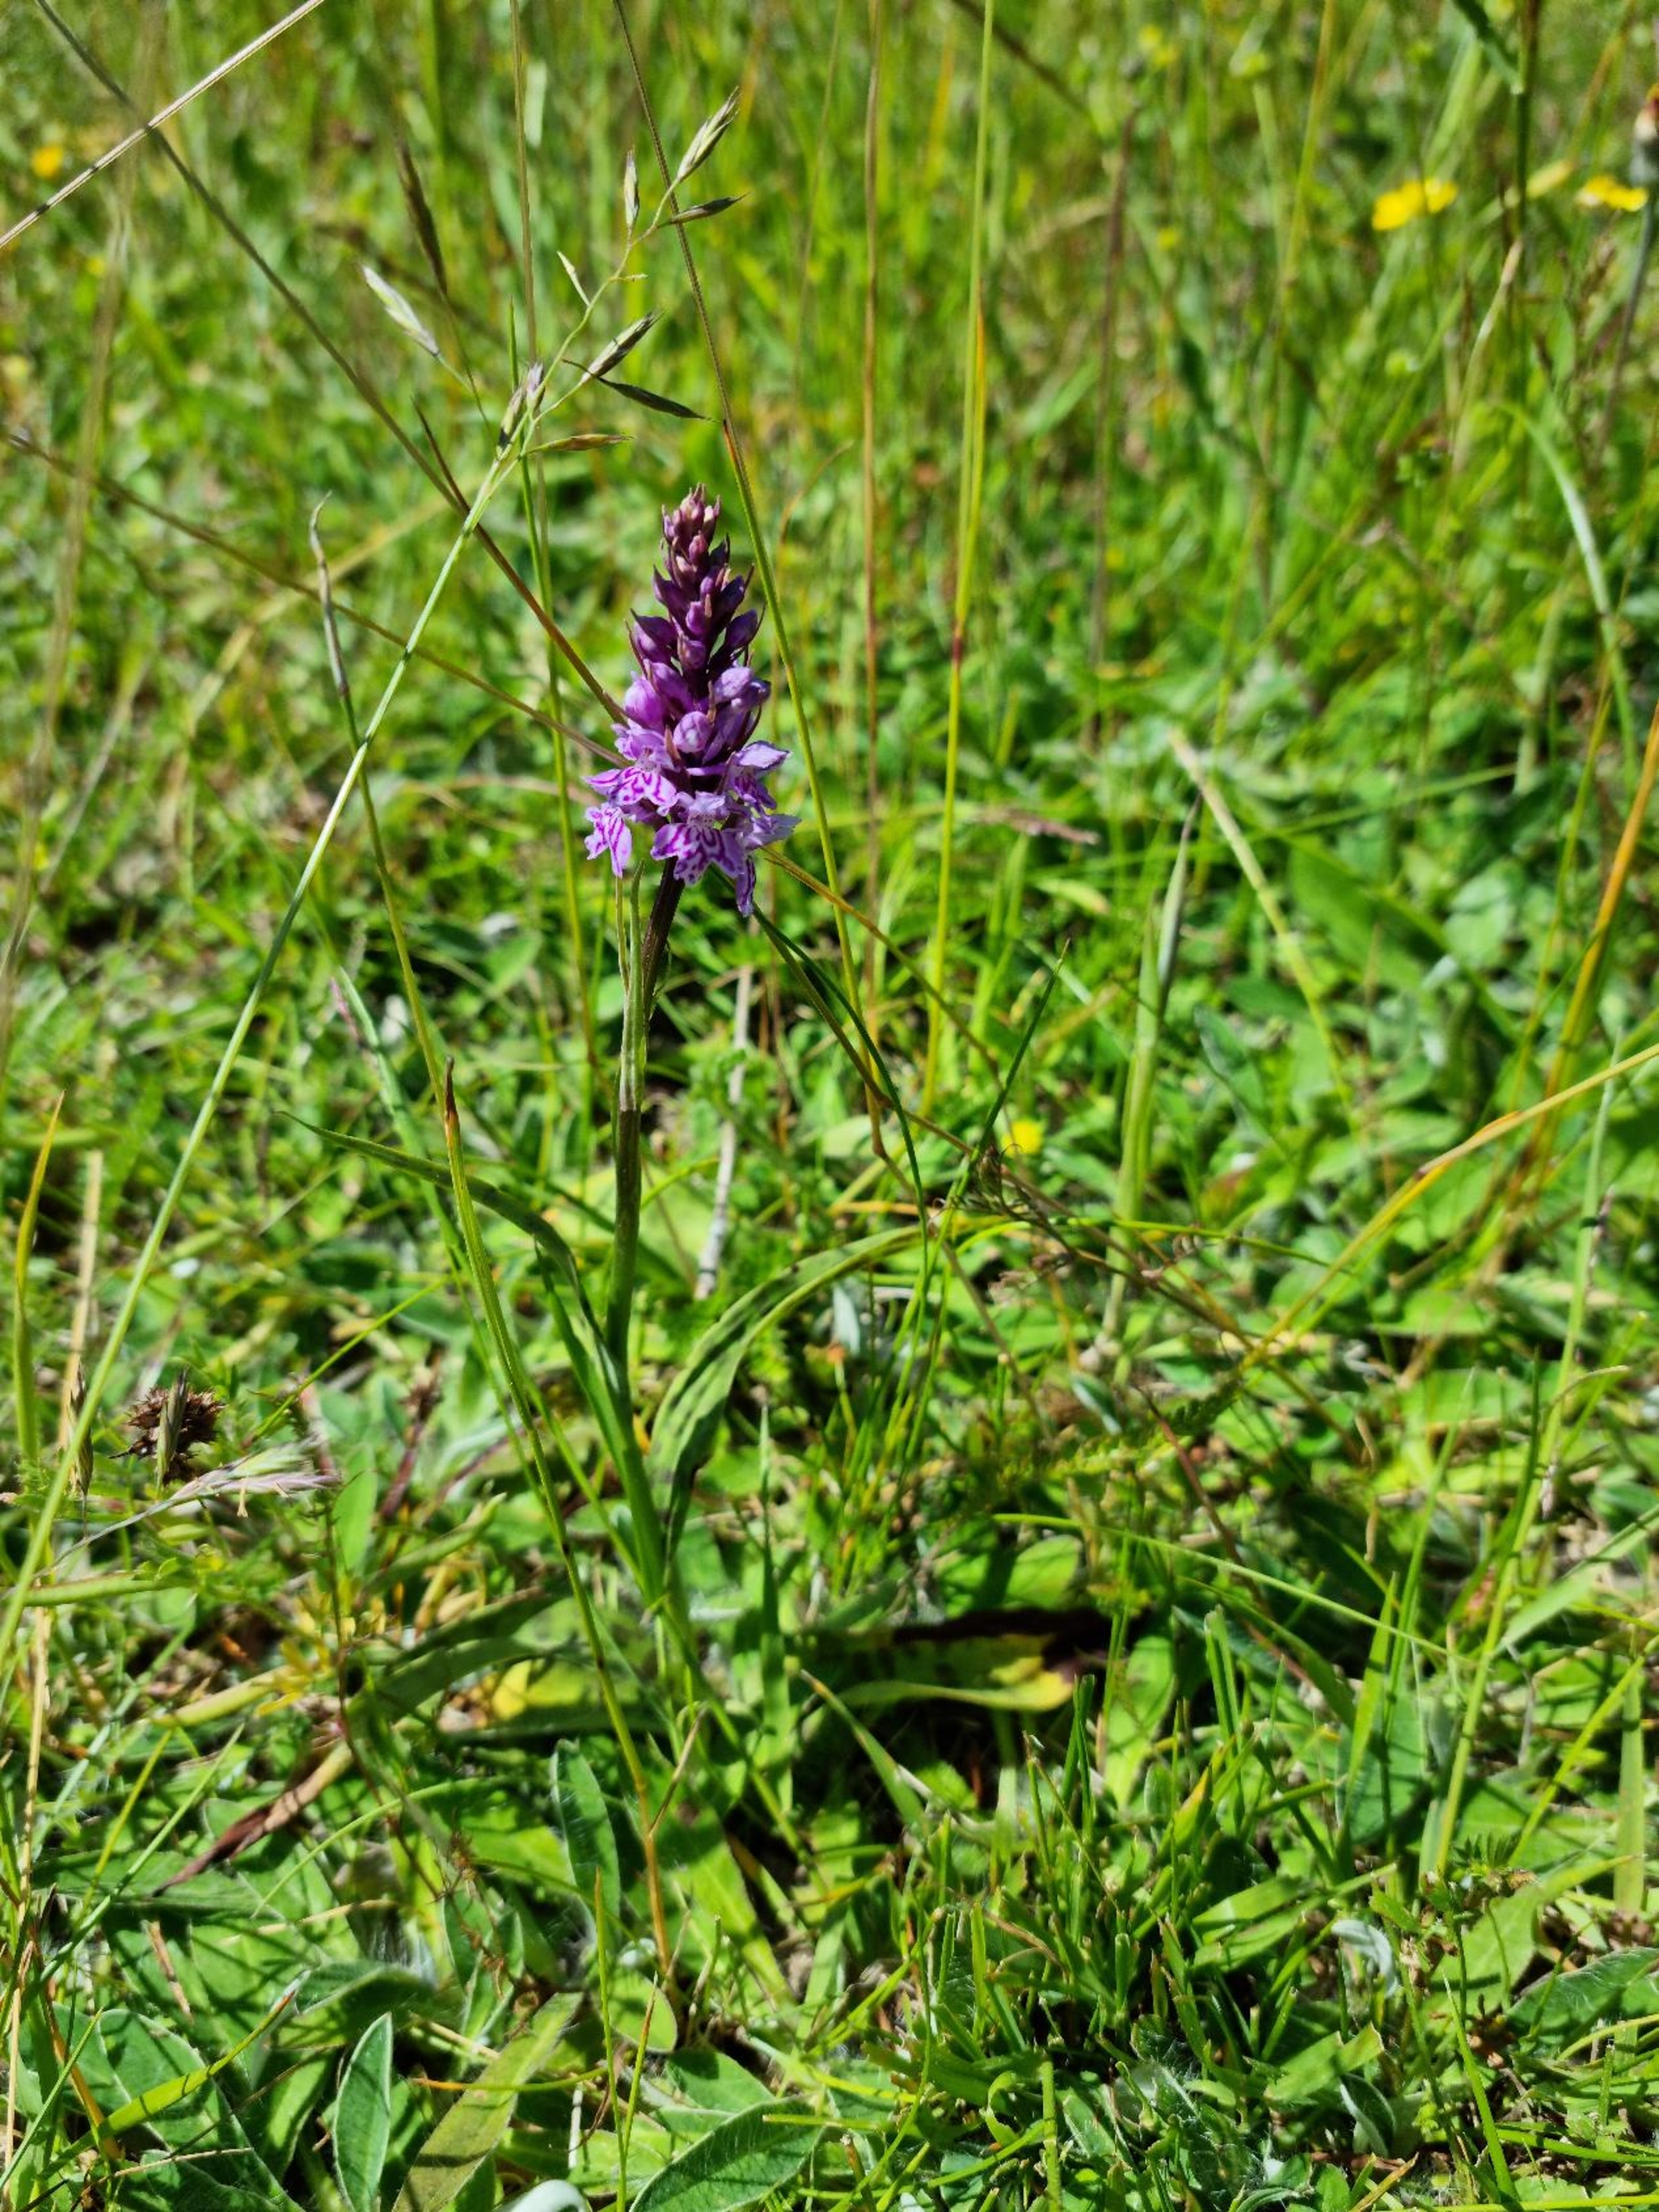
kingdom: Plantae
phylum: Tracheophyta
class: Liliopsida
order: Asparagales
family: Orchidaceae
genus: Dactylorhiza
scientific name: Dactylorhiza maculata
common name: Skov-gøgeurt
